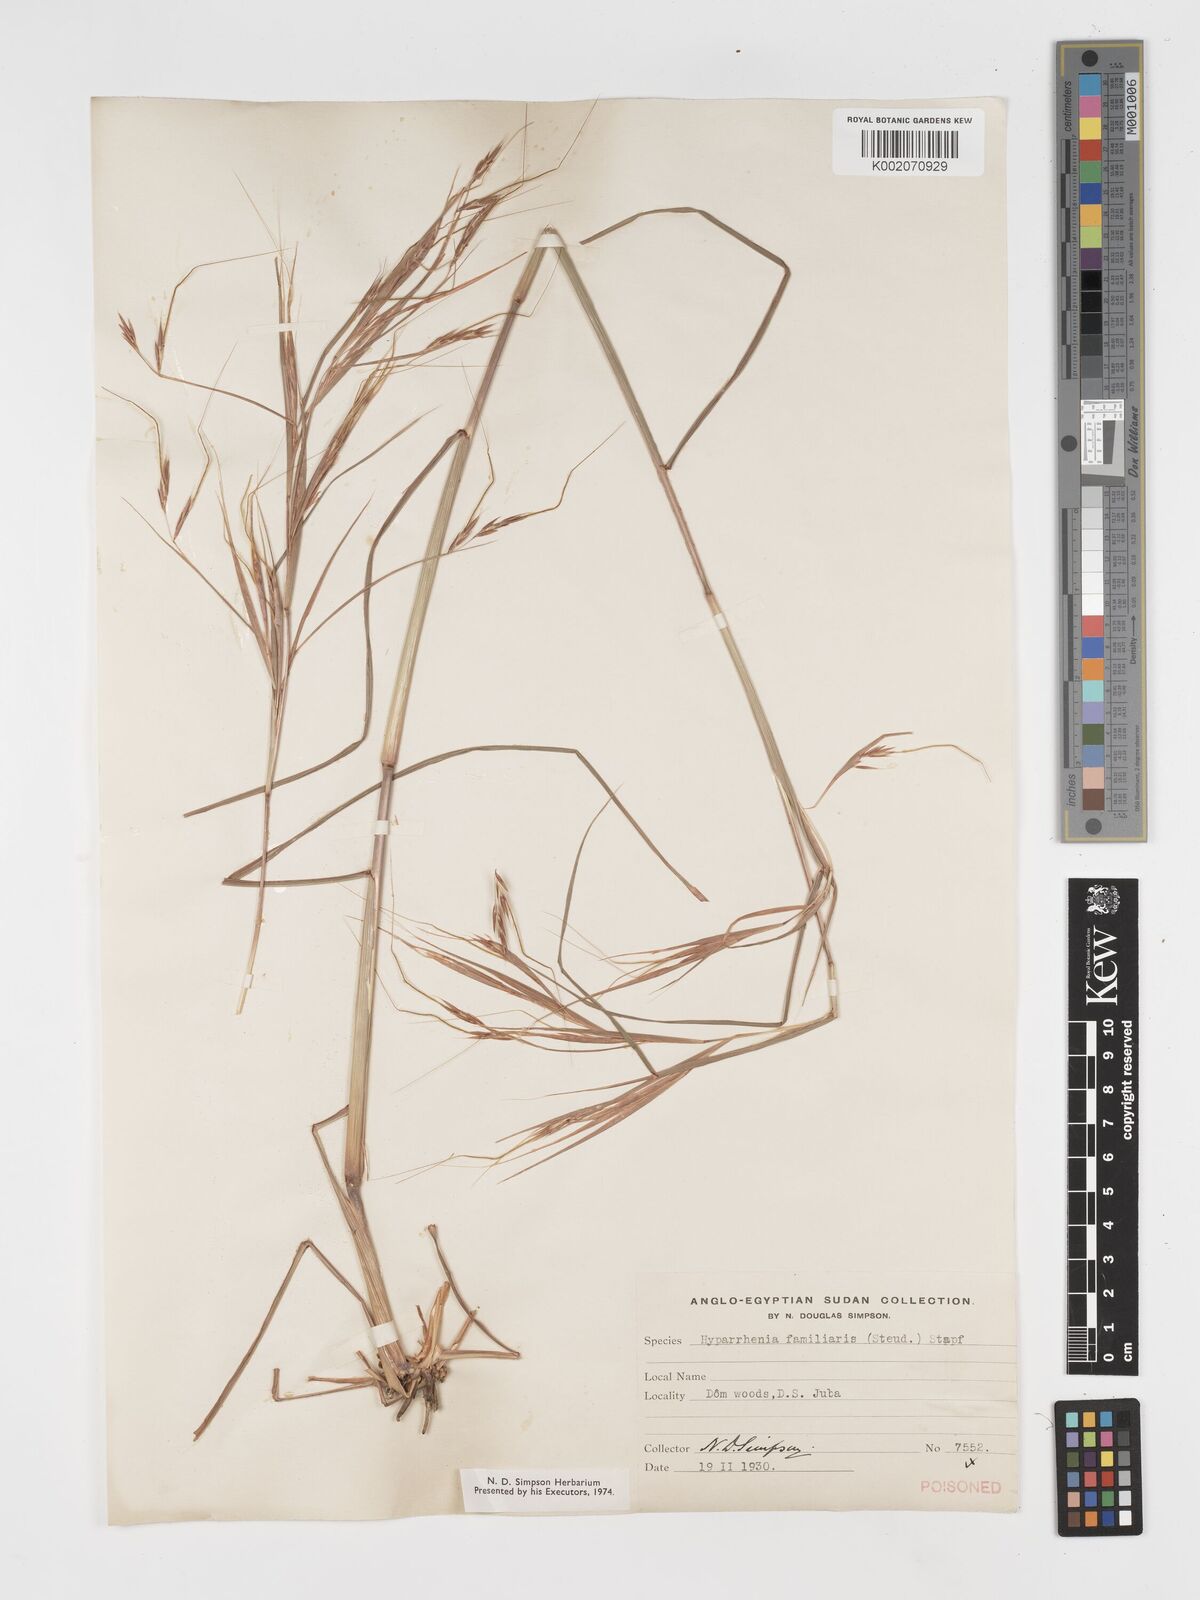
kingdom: Plantae
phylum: Tracheophyta
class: Liliopsida
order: Poales
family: Poaceae
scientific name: Poaceae
